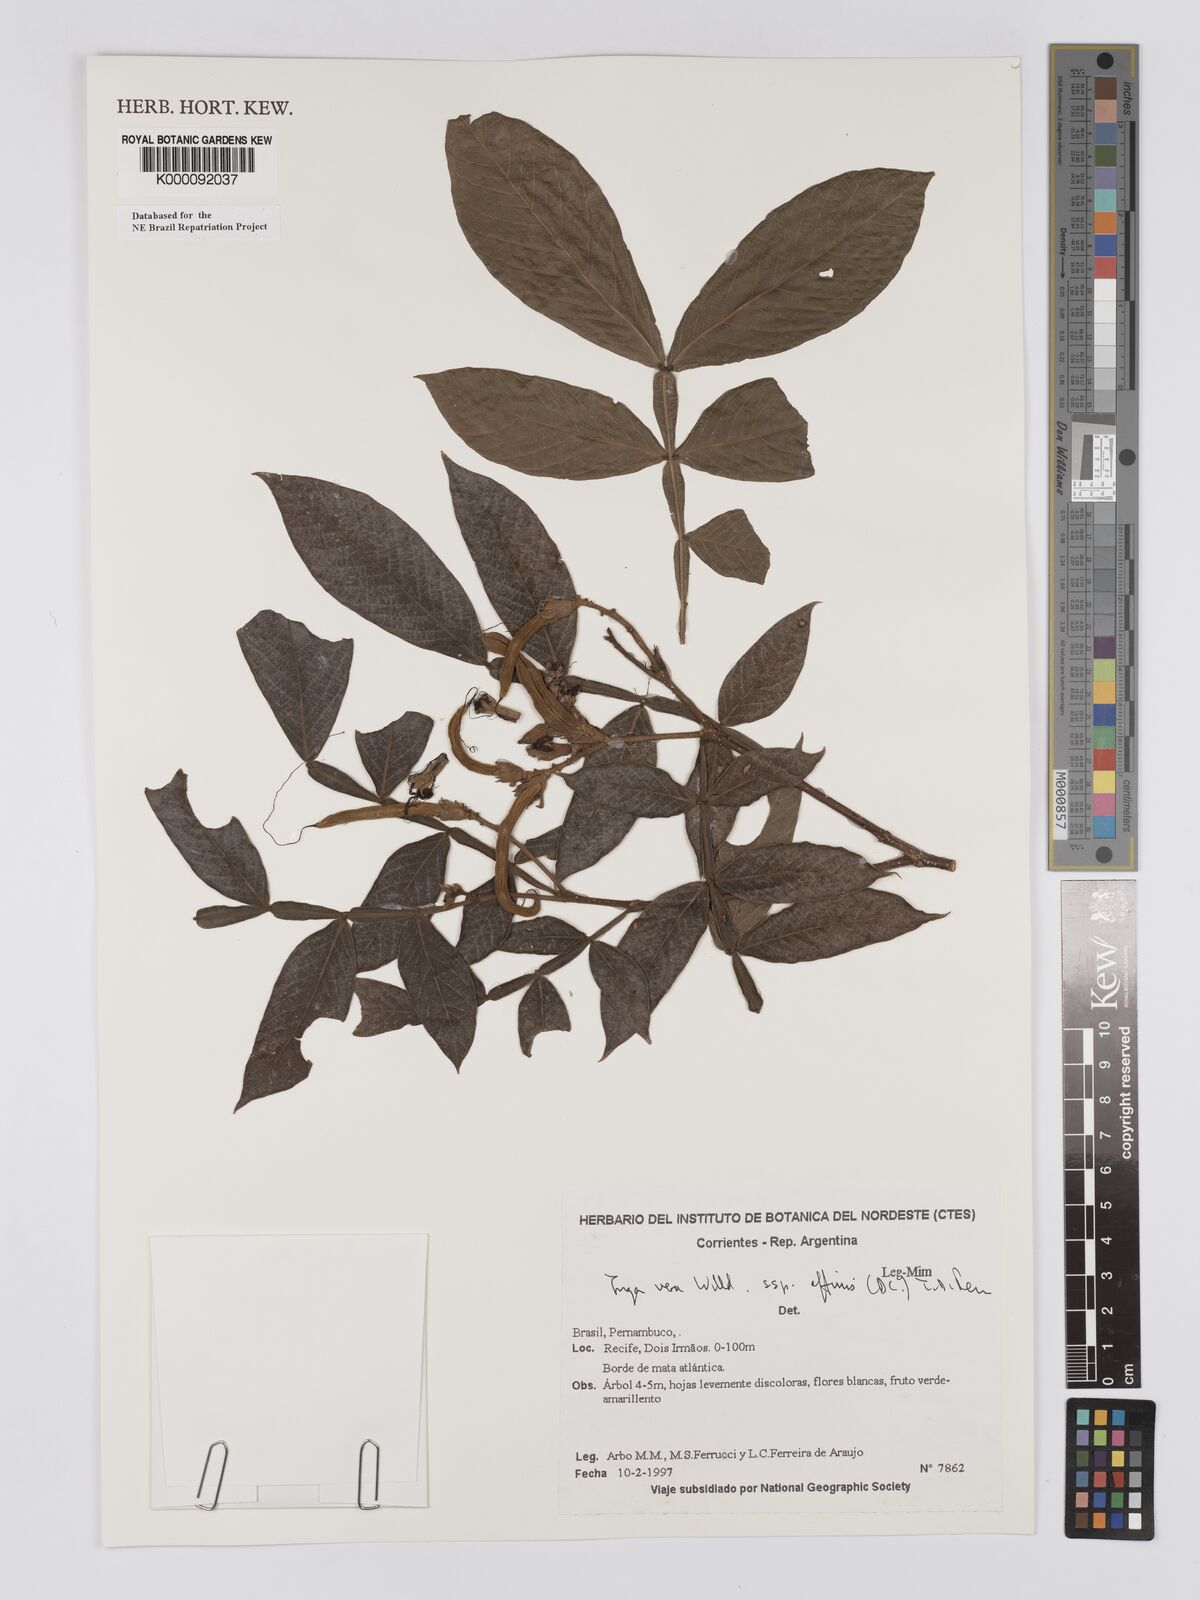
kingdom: Plantae
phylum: Tracheophyta
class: Magnoliopsida
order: Fabales
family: Fabaceae
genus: Inga
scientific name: Inga affinis
